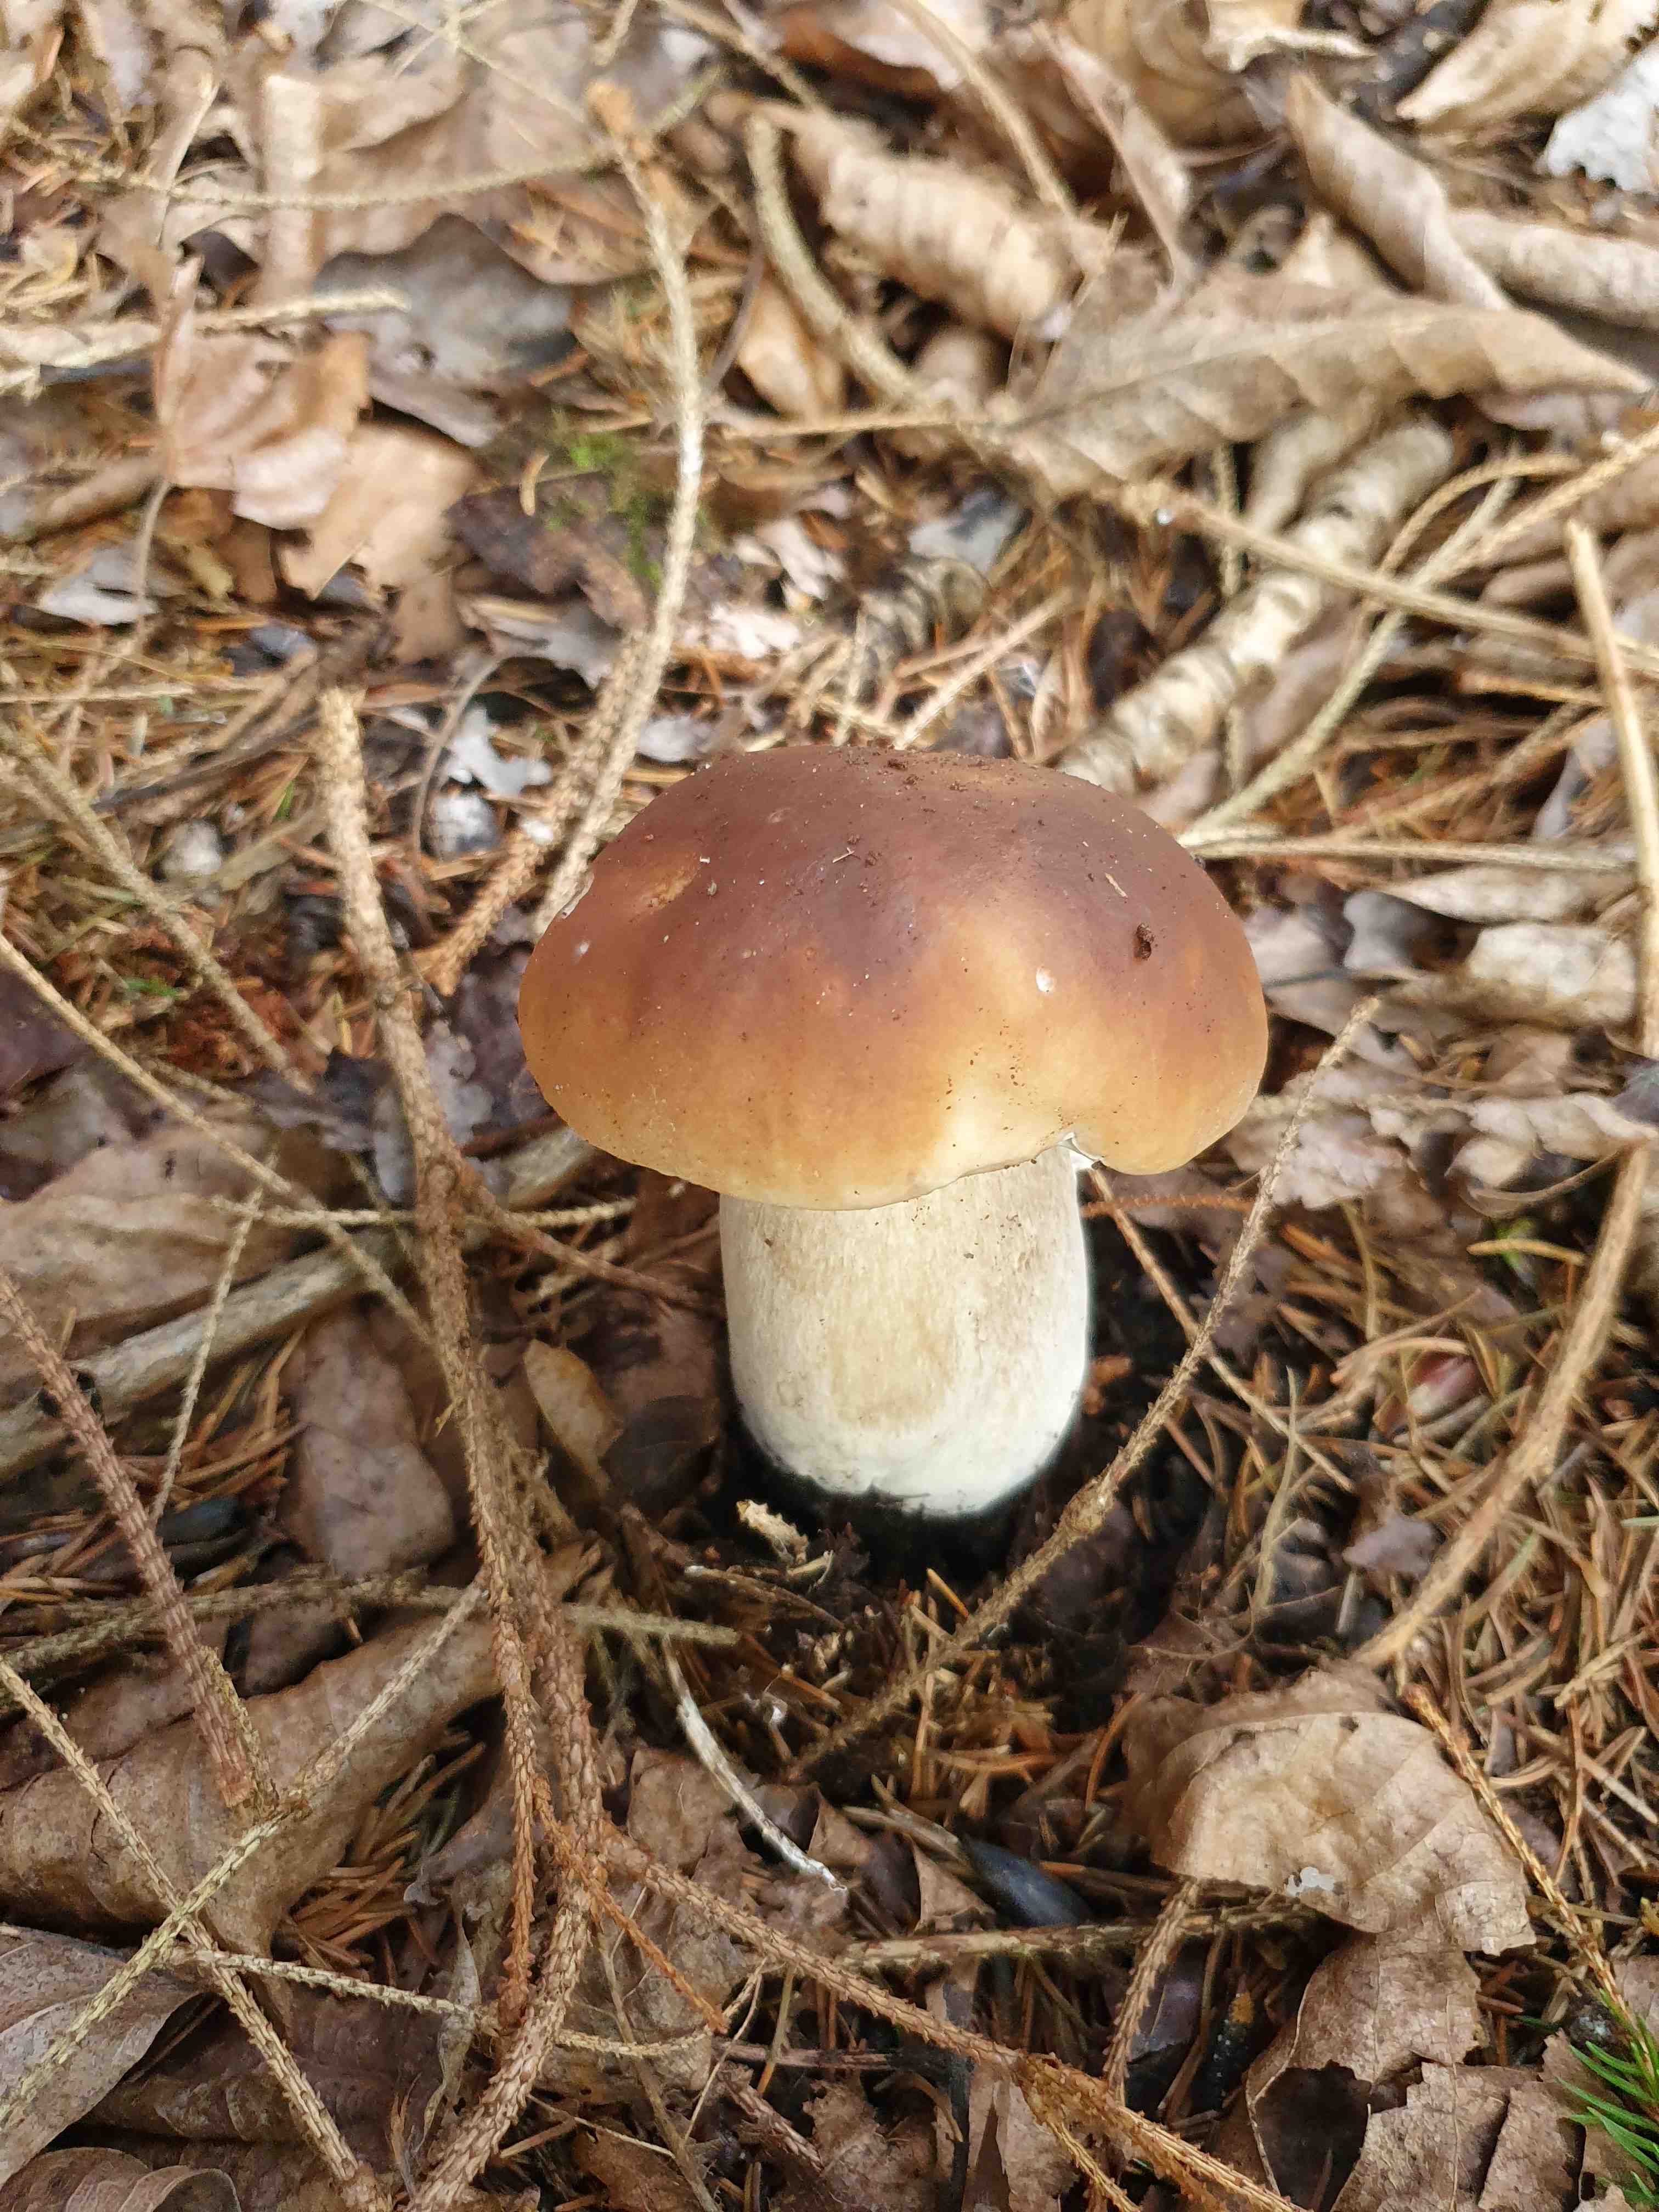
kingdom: Fungi
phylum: Basidiomycota
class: Agaricomycetes
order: Boletales
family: Boletaceae
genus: Boletus
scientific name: Boletus edulis
